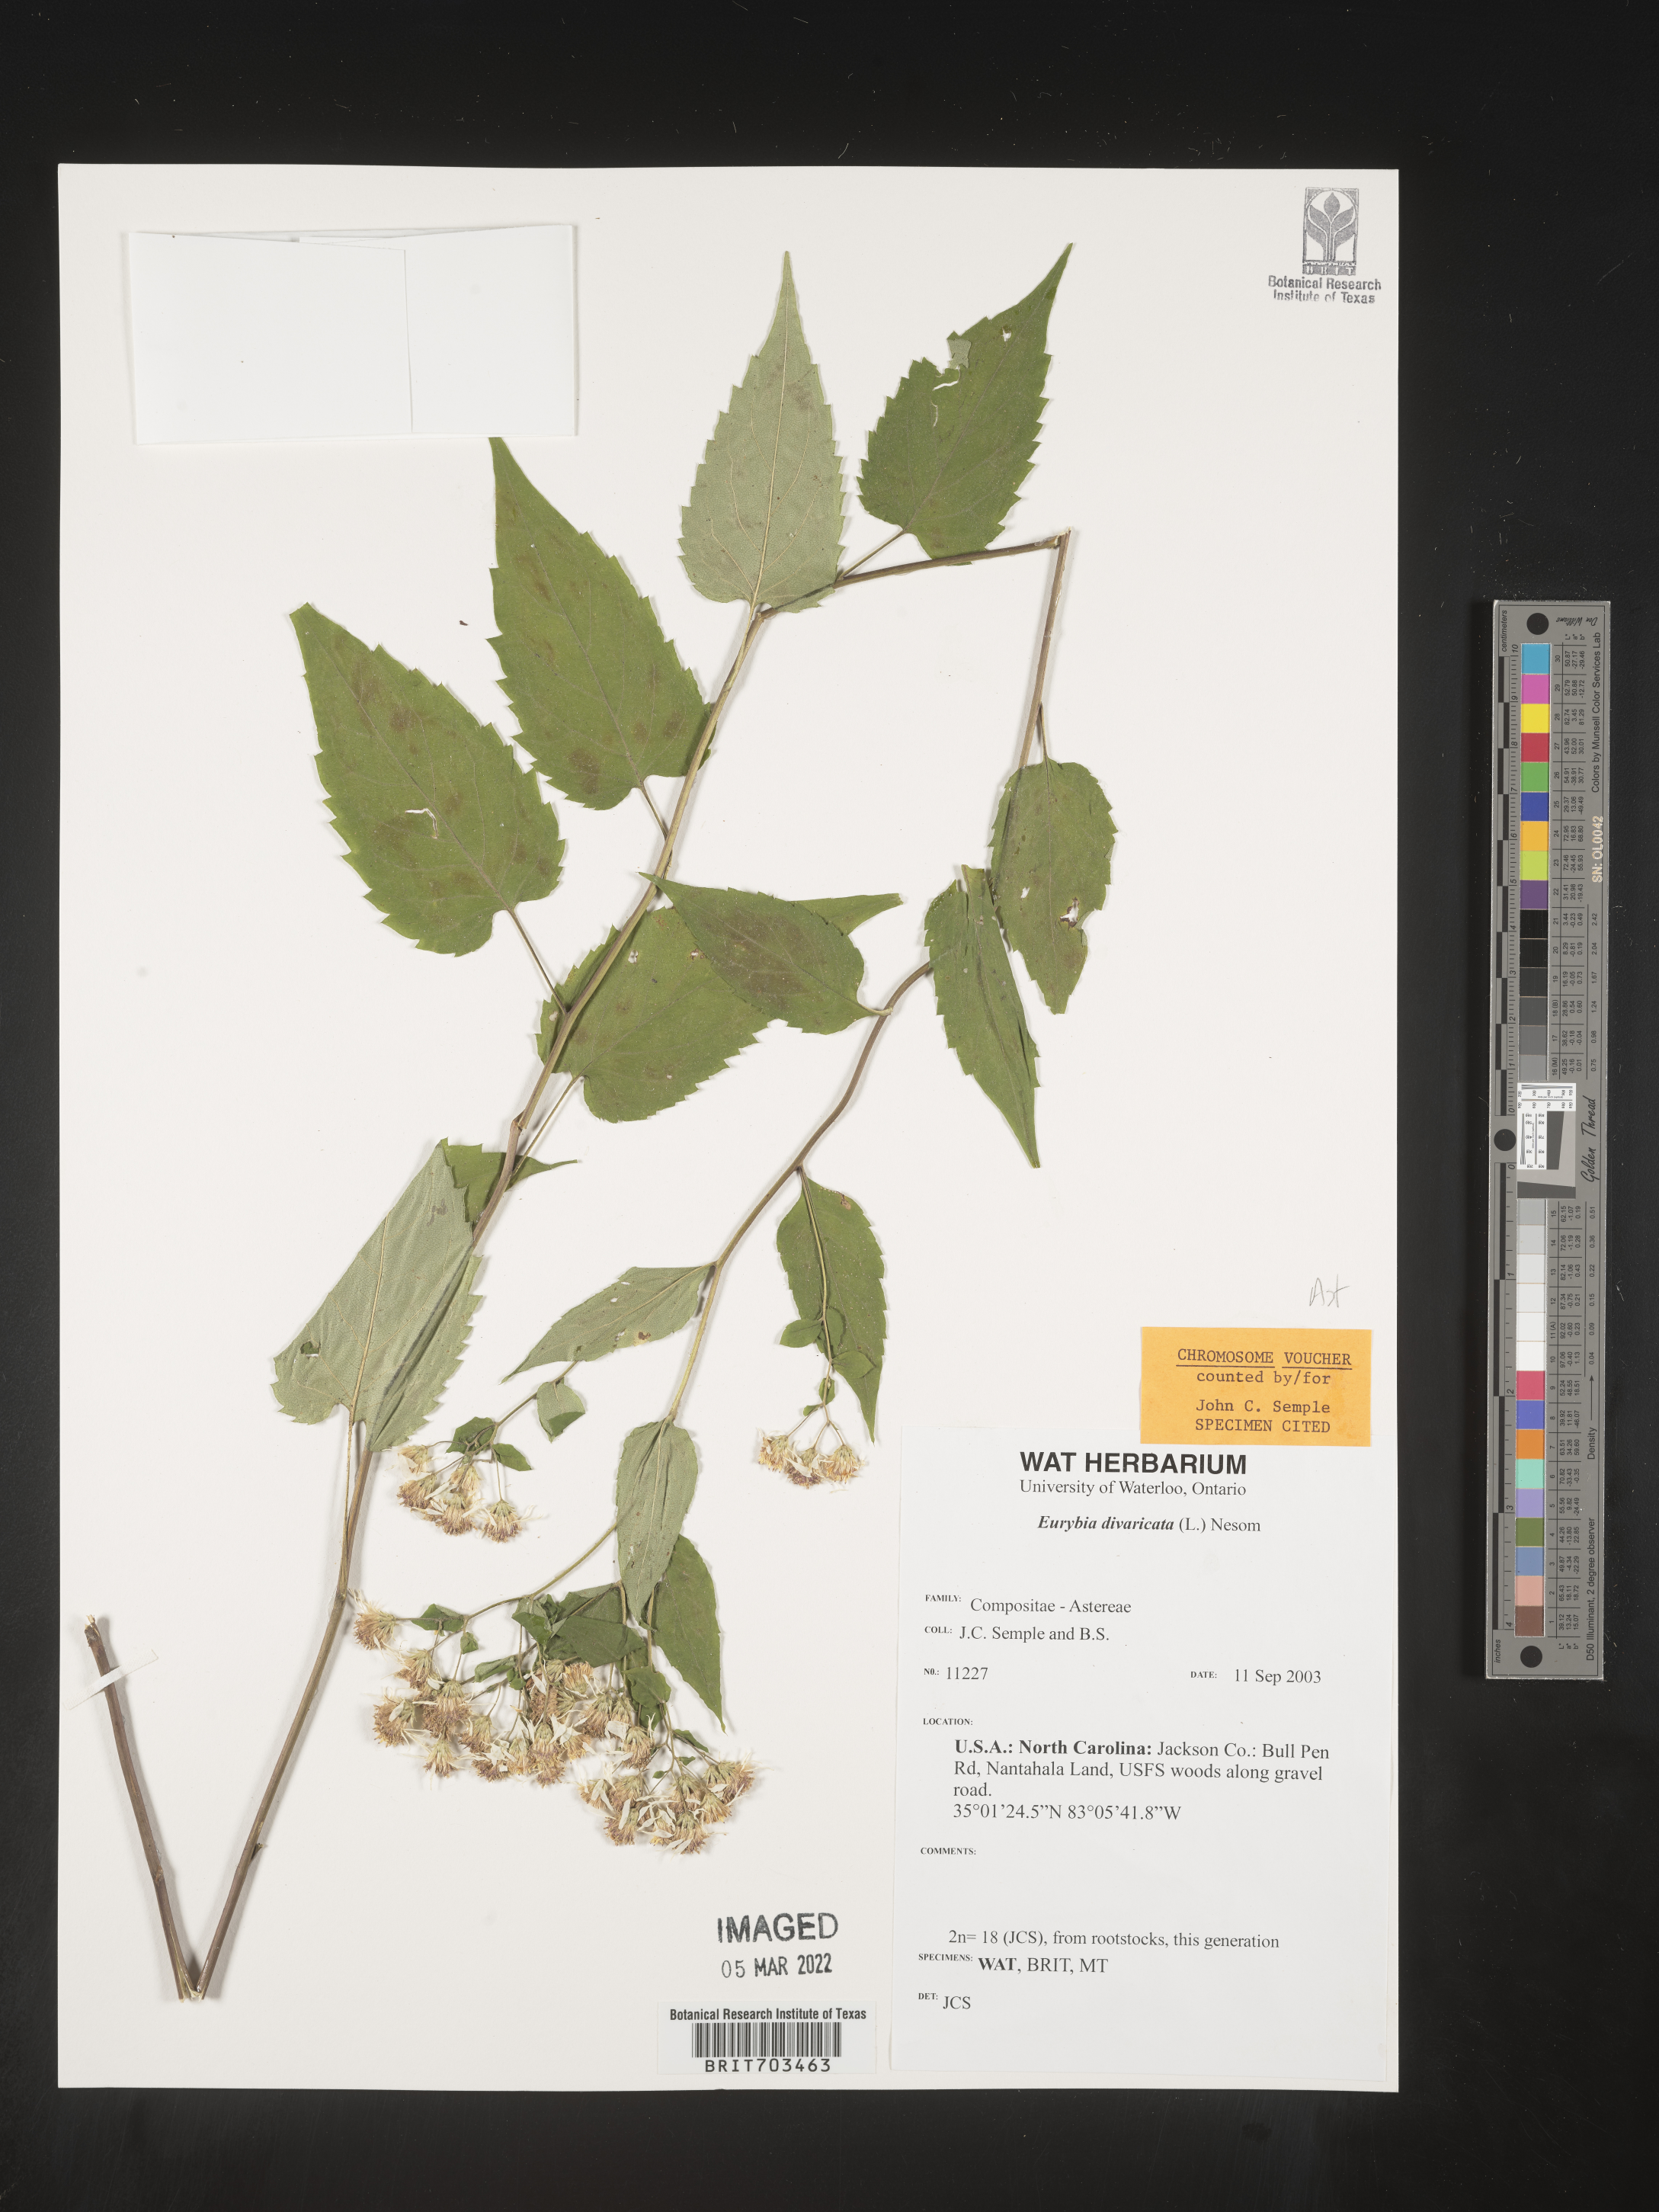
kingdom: Plantae
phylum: Tracheophyta
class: Magnoliopsida
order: Asterales
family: Asteraceae
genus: Eurybia
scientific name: Eurybia divaricata
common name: White wood aster
